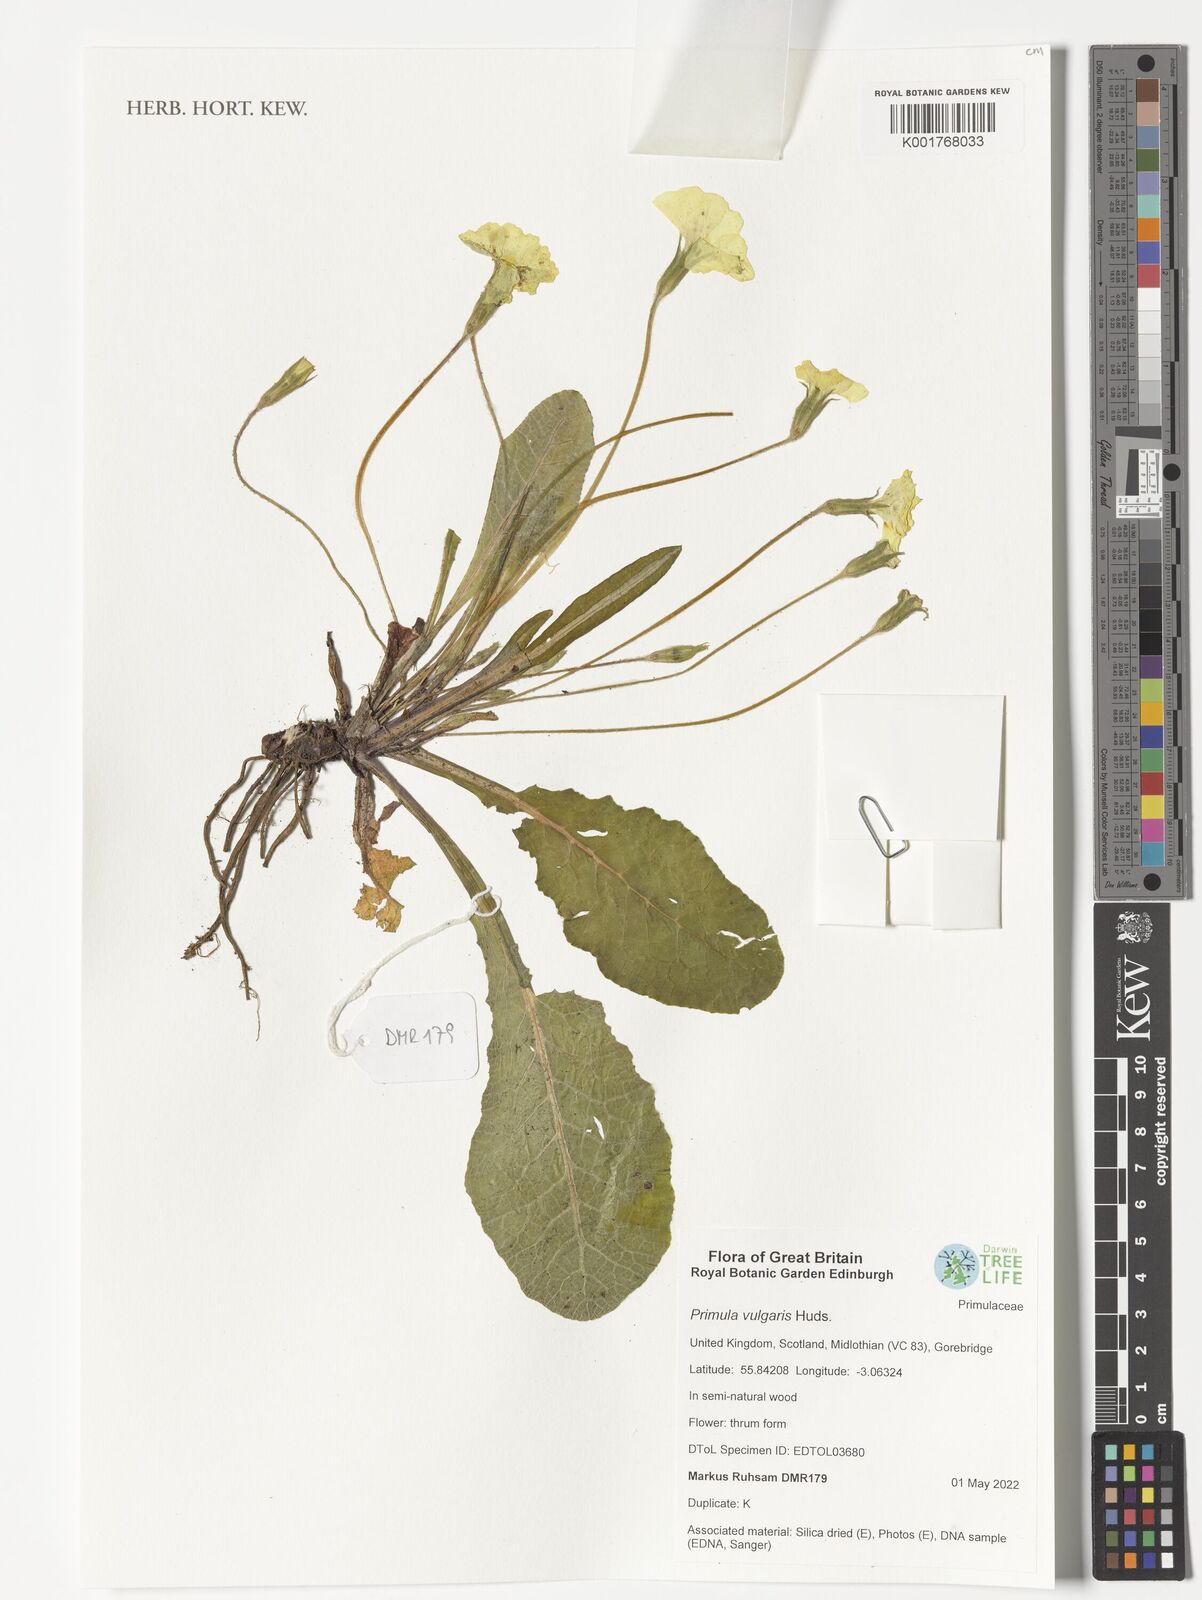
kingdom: Plantae
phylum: Tracheophyta
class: Magnoliopsida
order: Ericales
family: Primulaceae
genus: Primula
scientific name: Primula vulgaris
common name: Primrose
